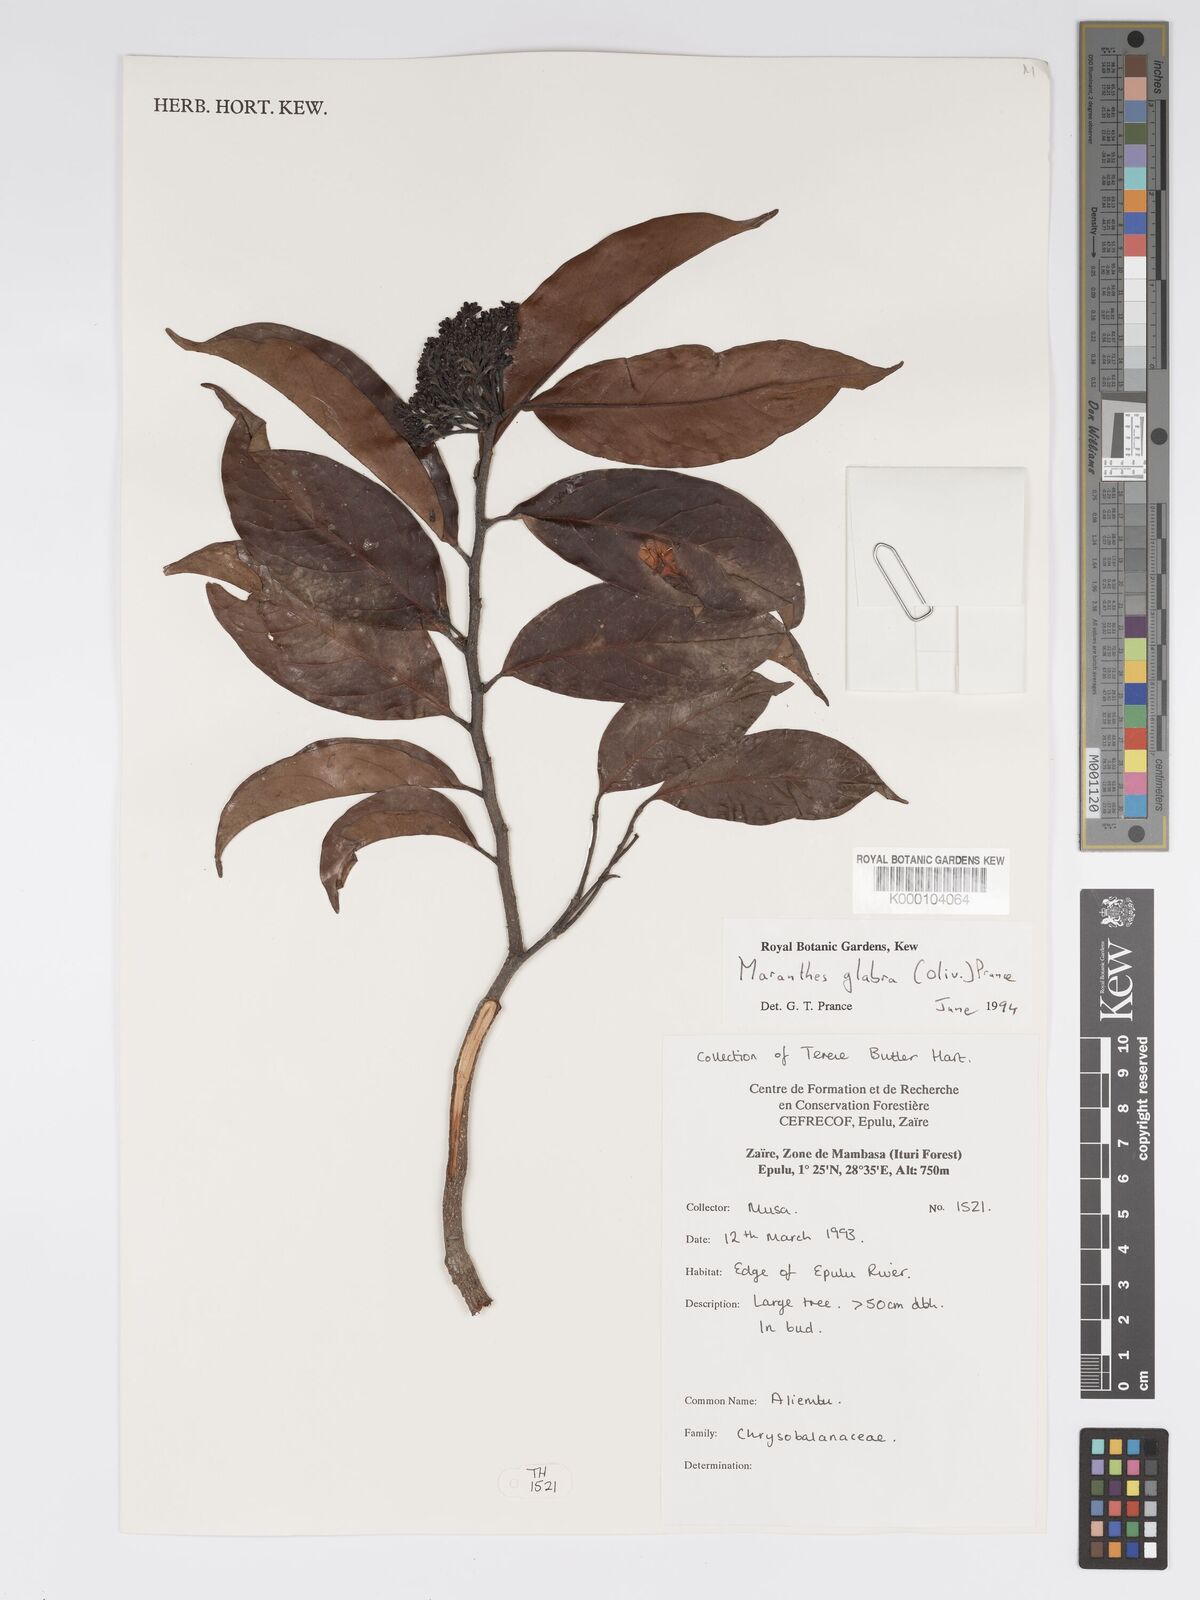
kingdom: Plantae
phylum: Tracheophyta
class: Magnoliopsida
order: Malpighiales
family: Chrysobalanaceae
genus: Maranthes
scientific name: Maranthes glabra
